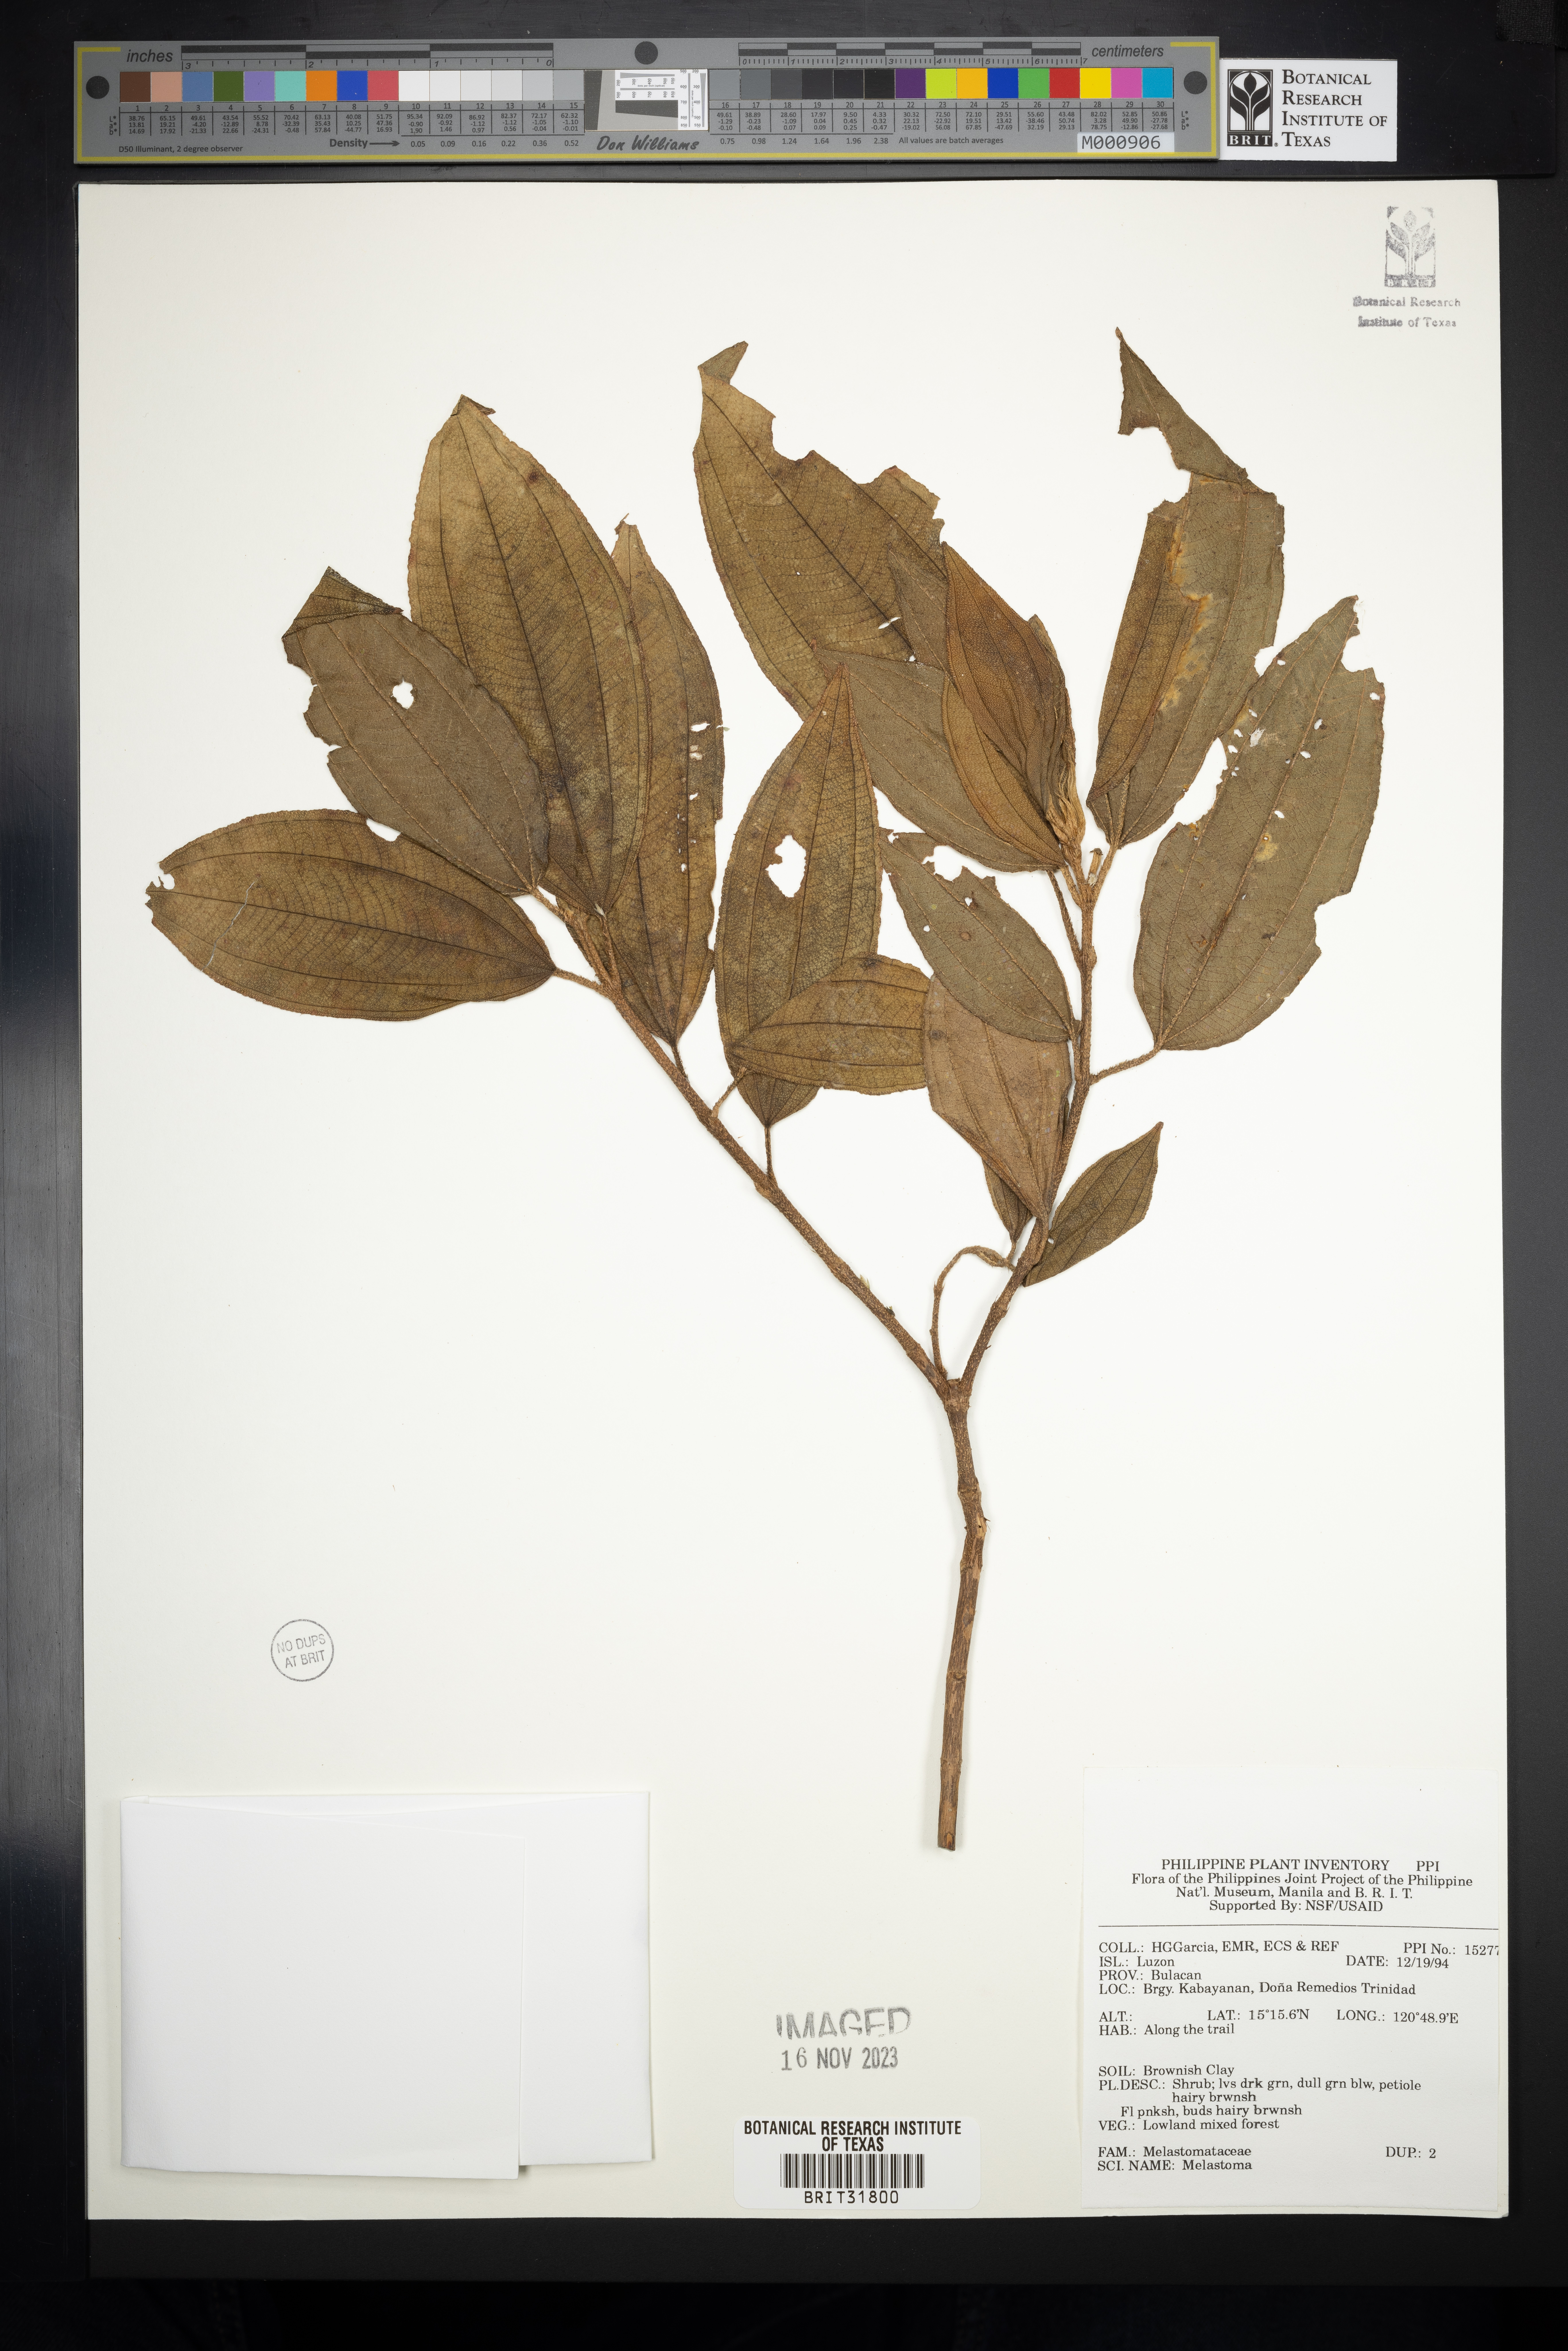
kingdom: Plantae
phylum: Tracheophyta
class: Magnoliopsida
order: Myrtales
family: Melastomataceae
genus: Melastoma
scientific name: Melastoma
